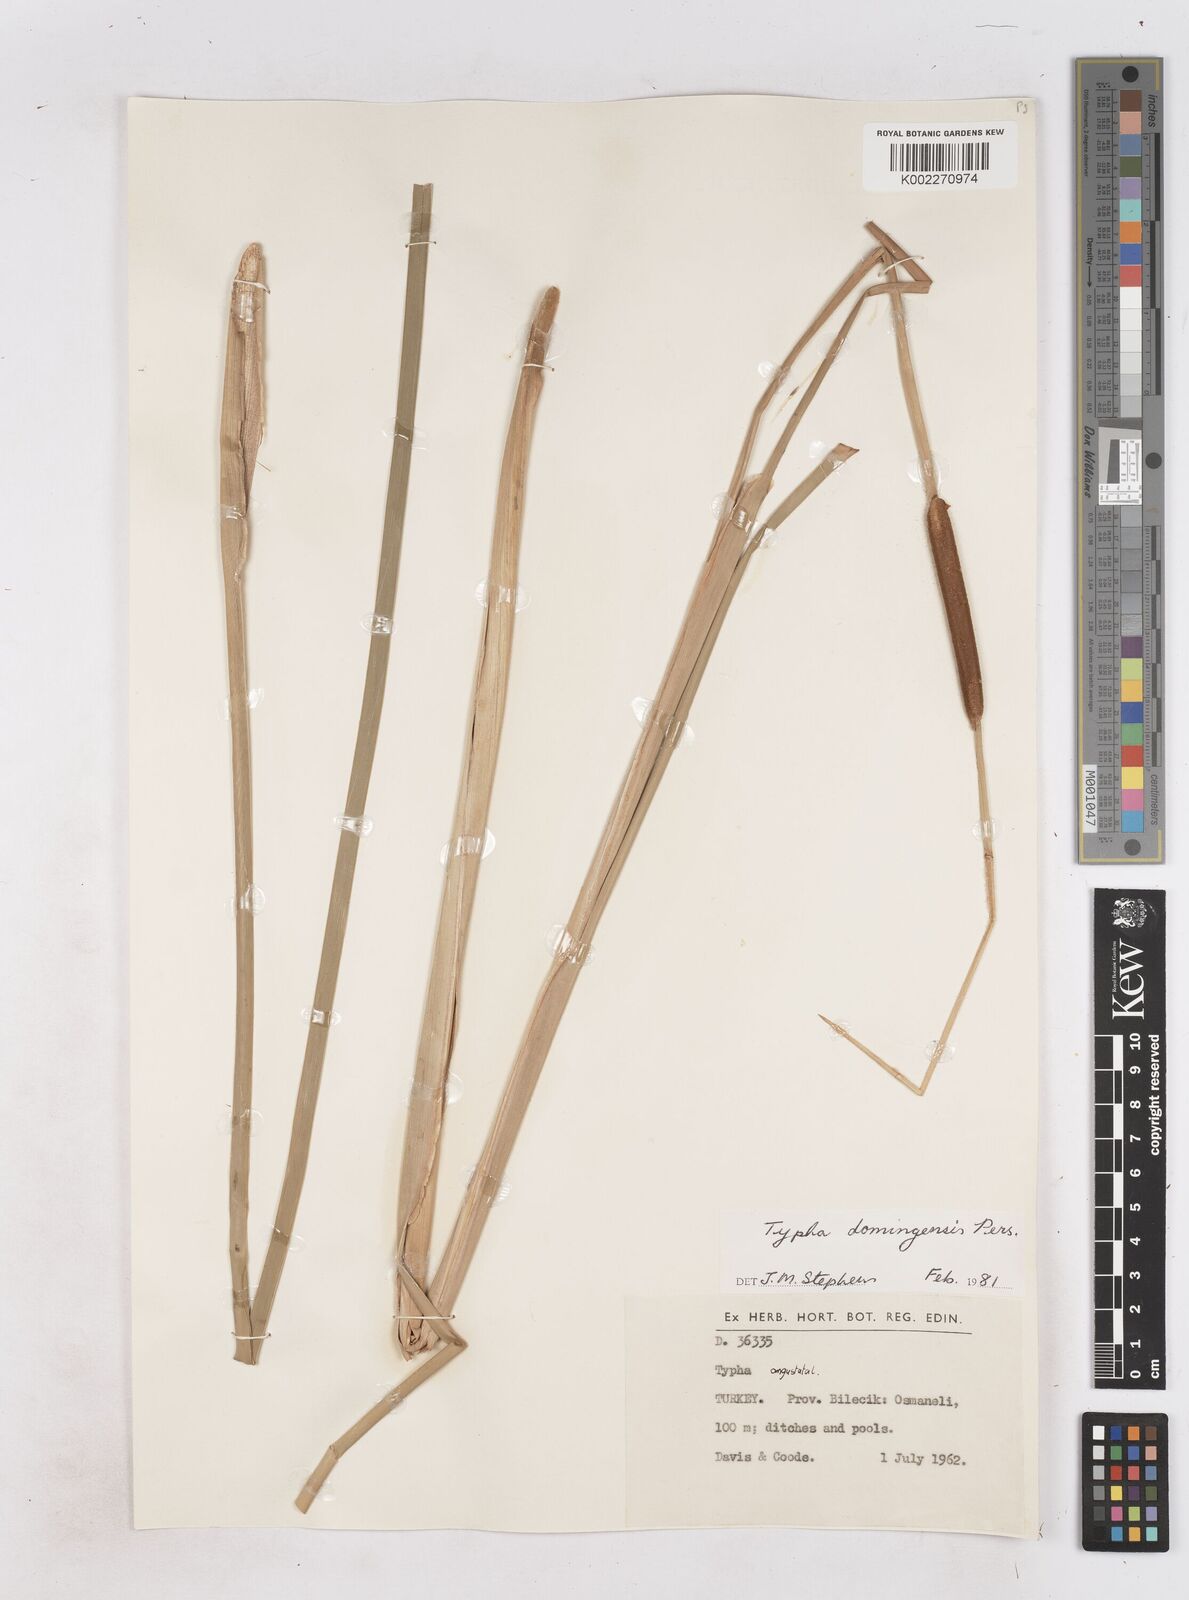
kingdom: Plantae
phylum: Tracheophyta
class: Liliopsida
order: Poales
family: Typhaceae
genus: Typha
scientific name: Typha domingensis
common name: Southern cattail
